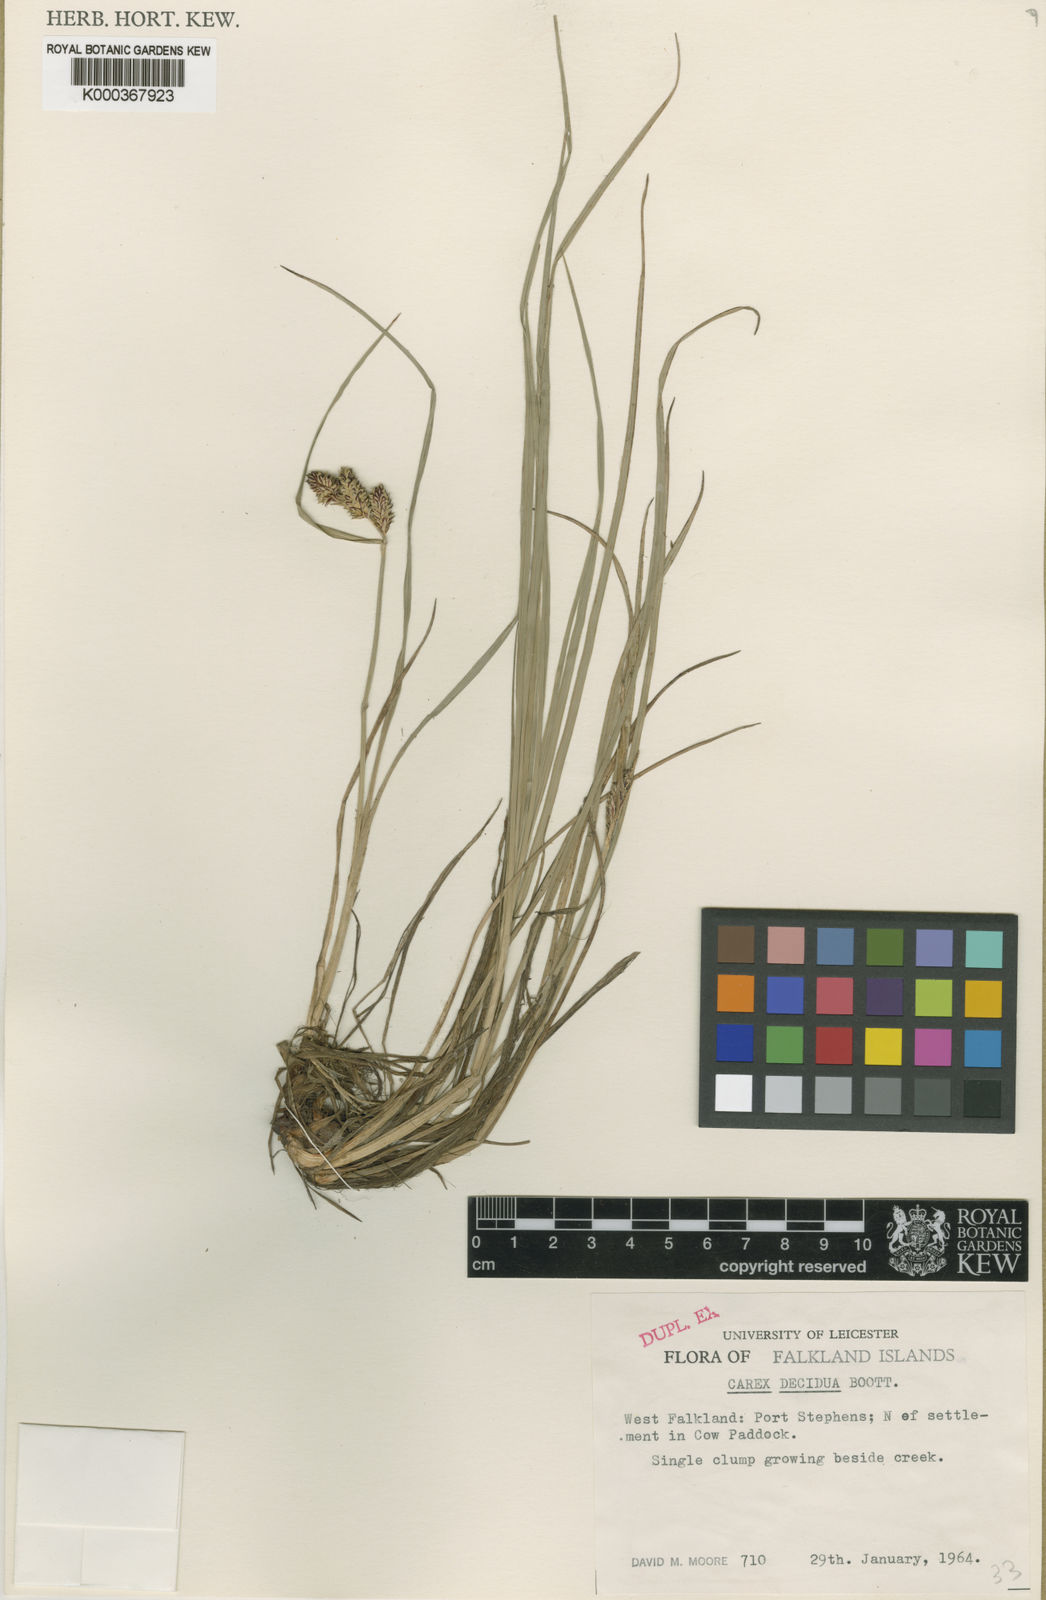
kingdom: Plantae
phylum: Tracheophyta
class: Liliopsida
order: Poales
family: Cyperaceae
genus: Carex
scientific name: Carex decidua
